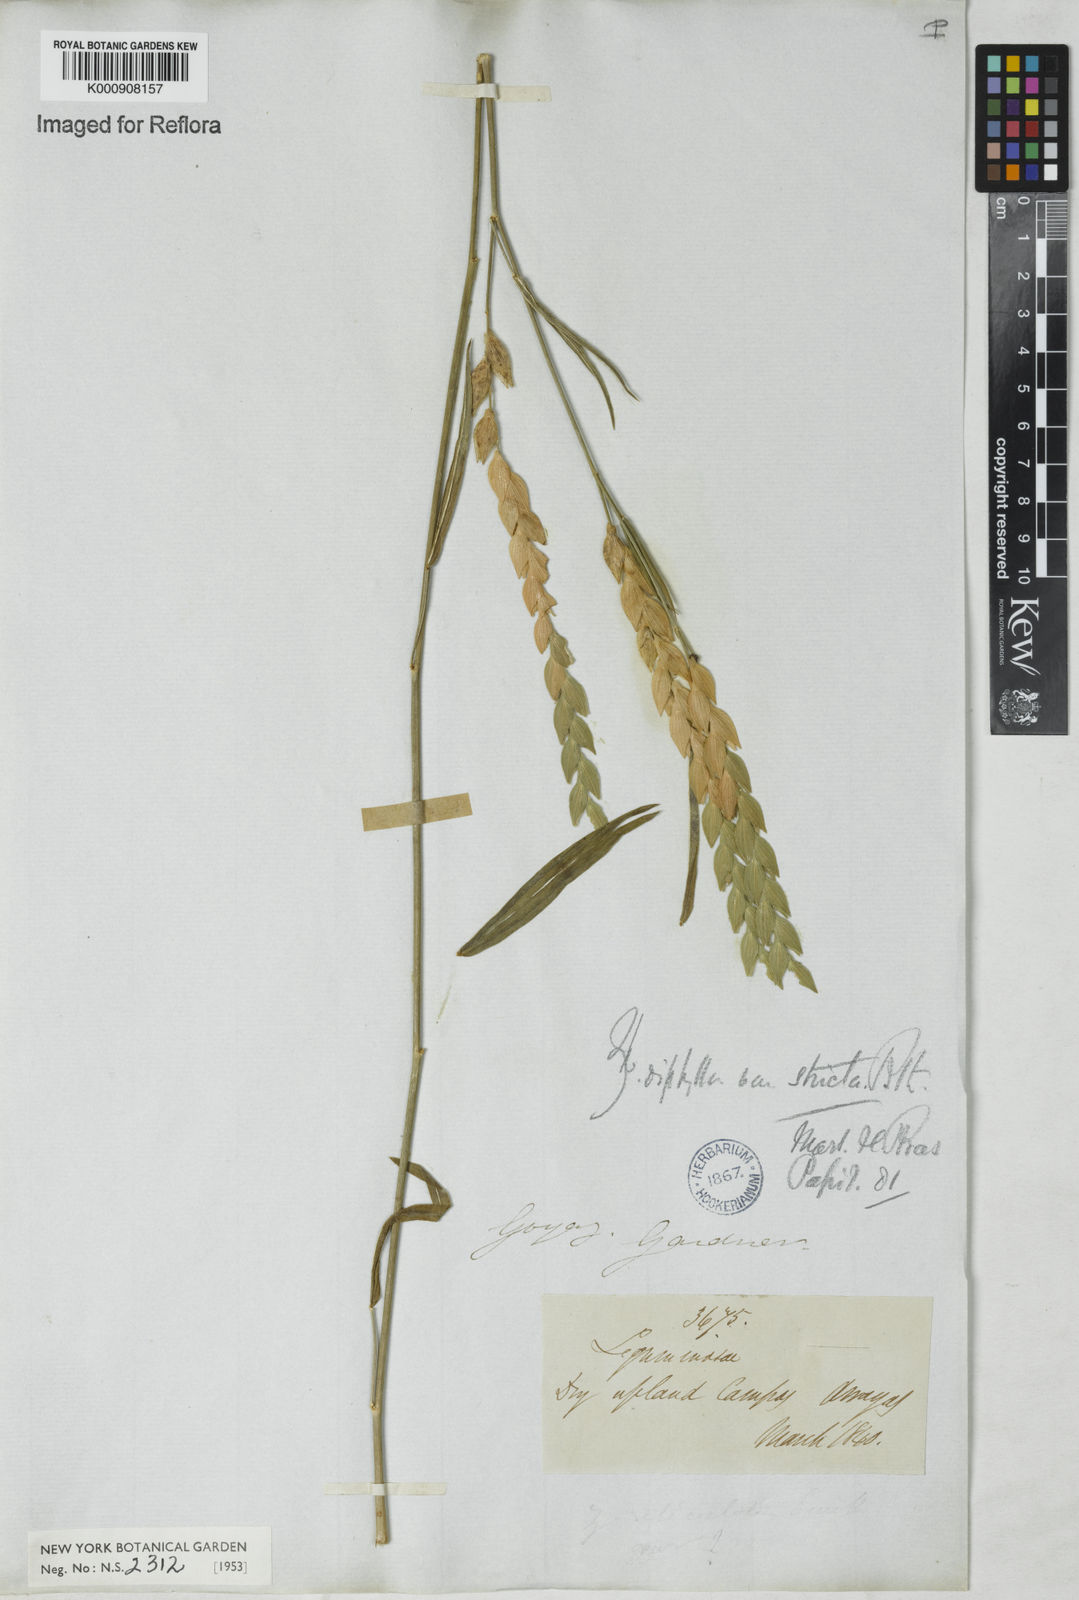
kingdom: Plantae
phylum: Tracheophyta
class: Magnoliopsida
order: Fabales
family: Fabaceae
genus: Zornia
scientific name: Zornia reticulata
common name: Reticulate viperina
